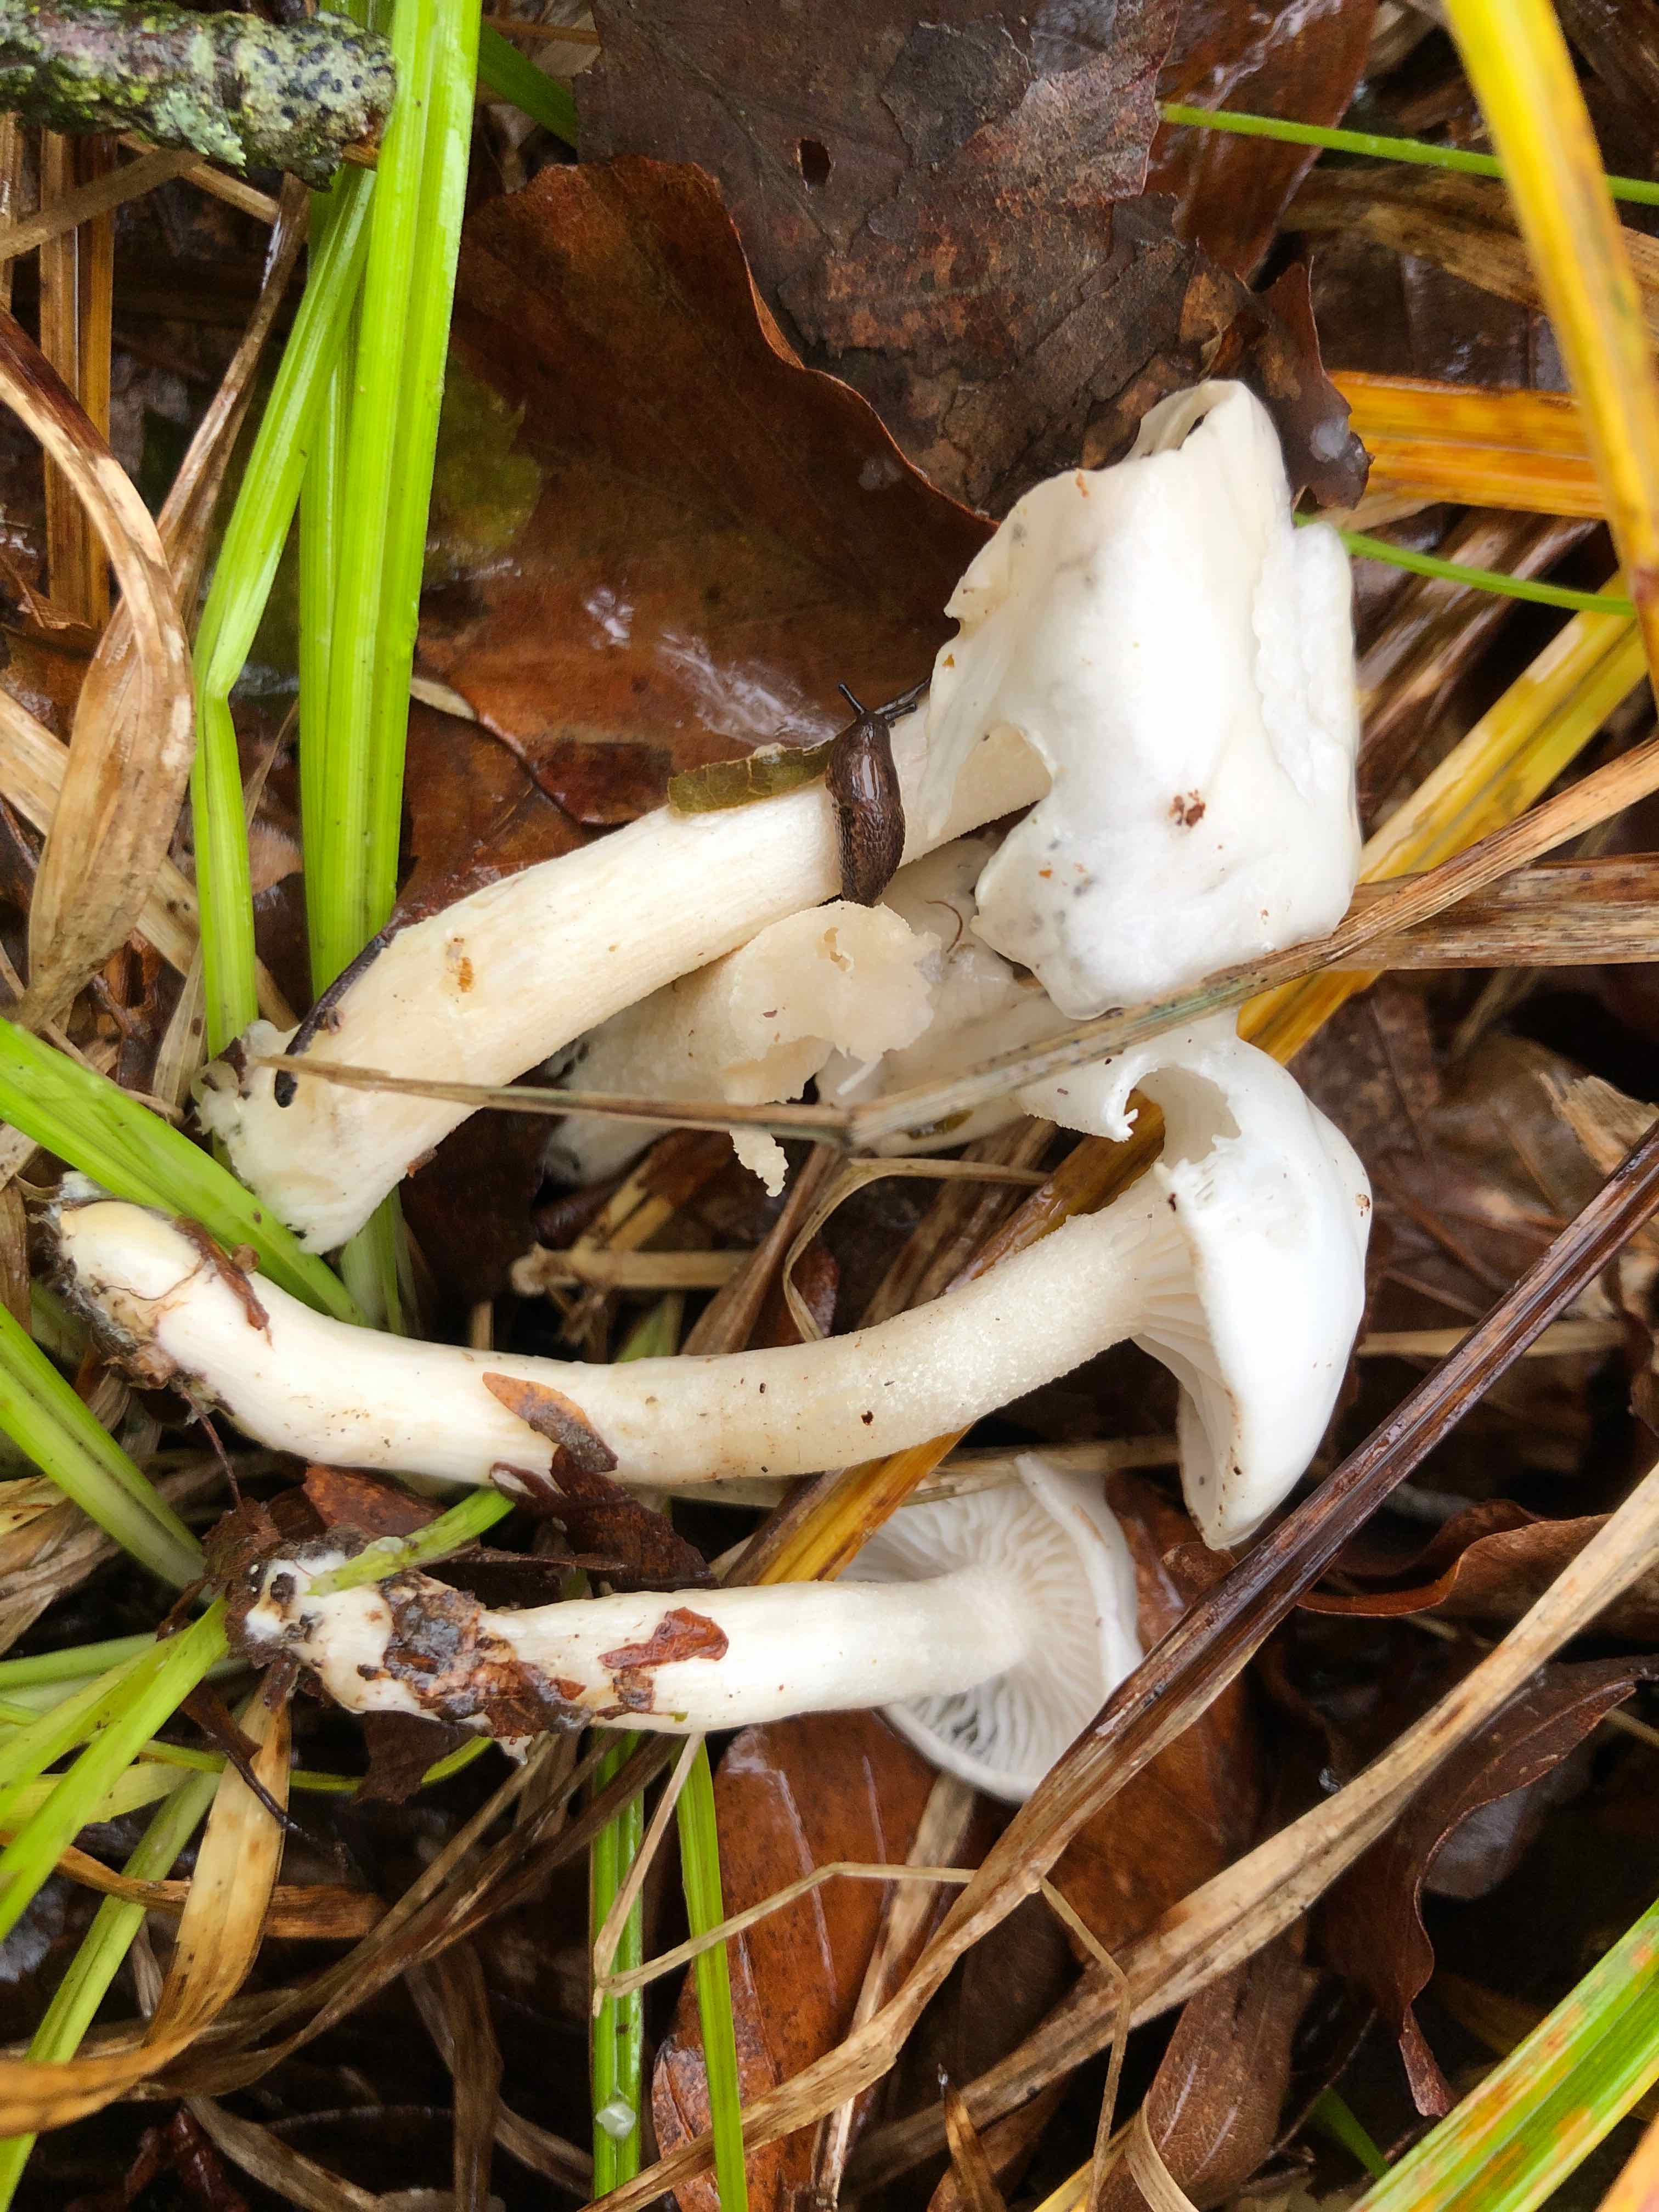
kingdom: Fungi
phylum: Basidiomycota
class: Agaricomycetes
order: Agaricales
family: Hygrophoraceae
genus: Hygrophorus
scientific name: Hygrophorus eburneus
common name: elfenbens-sneglehat
